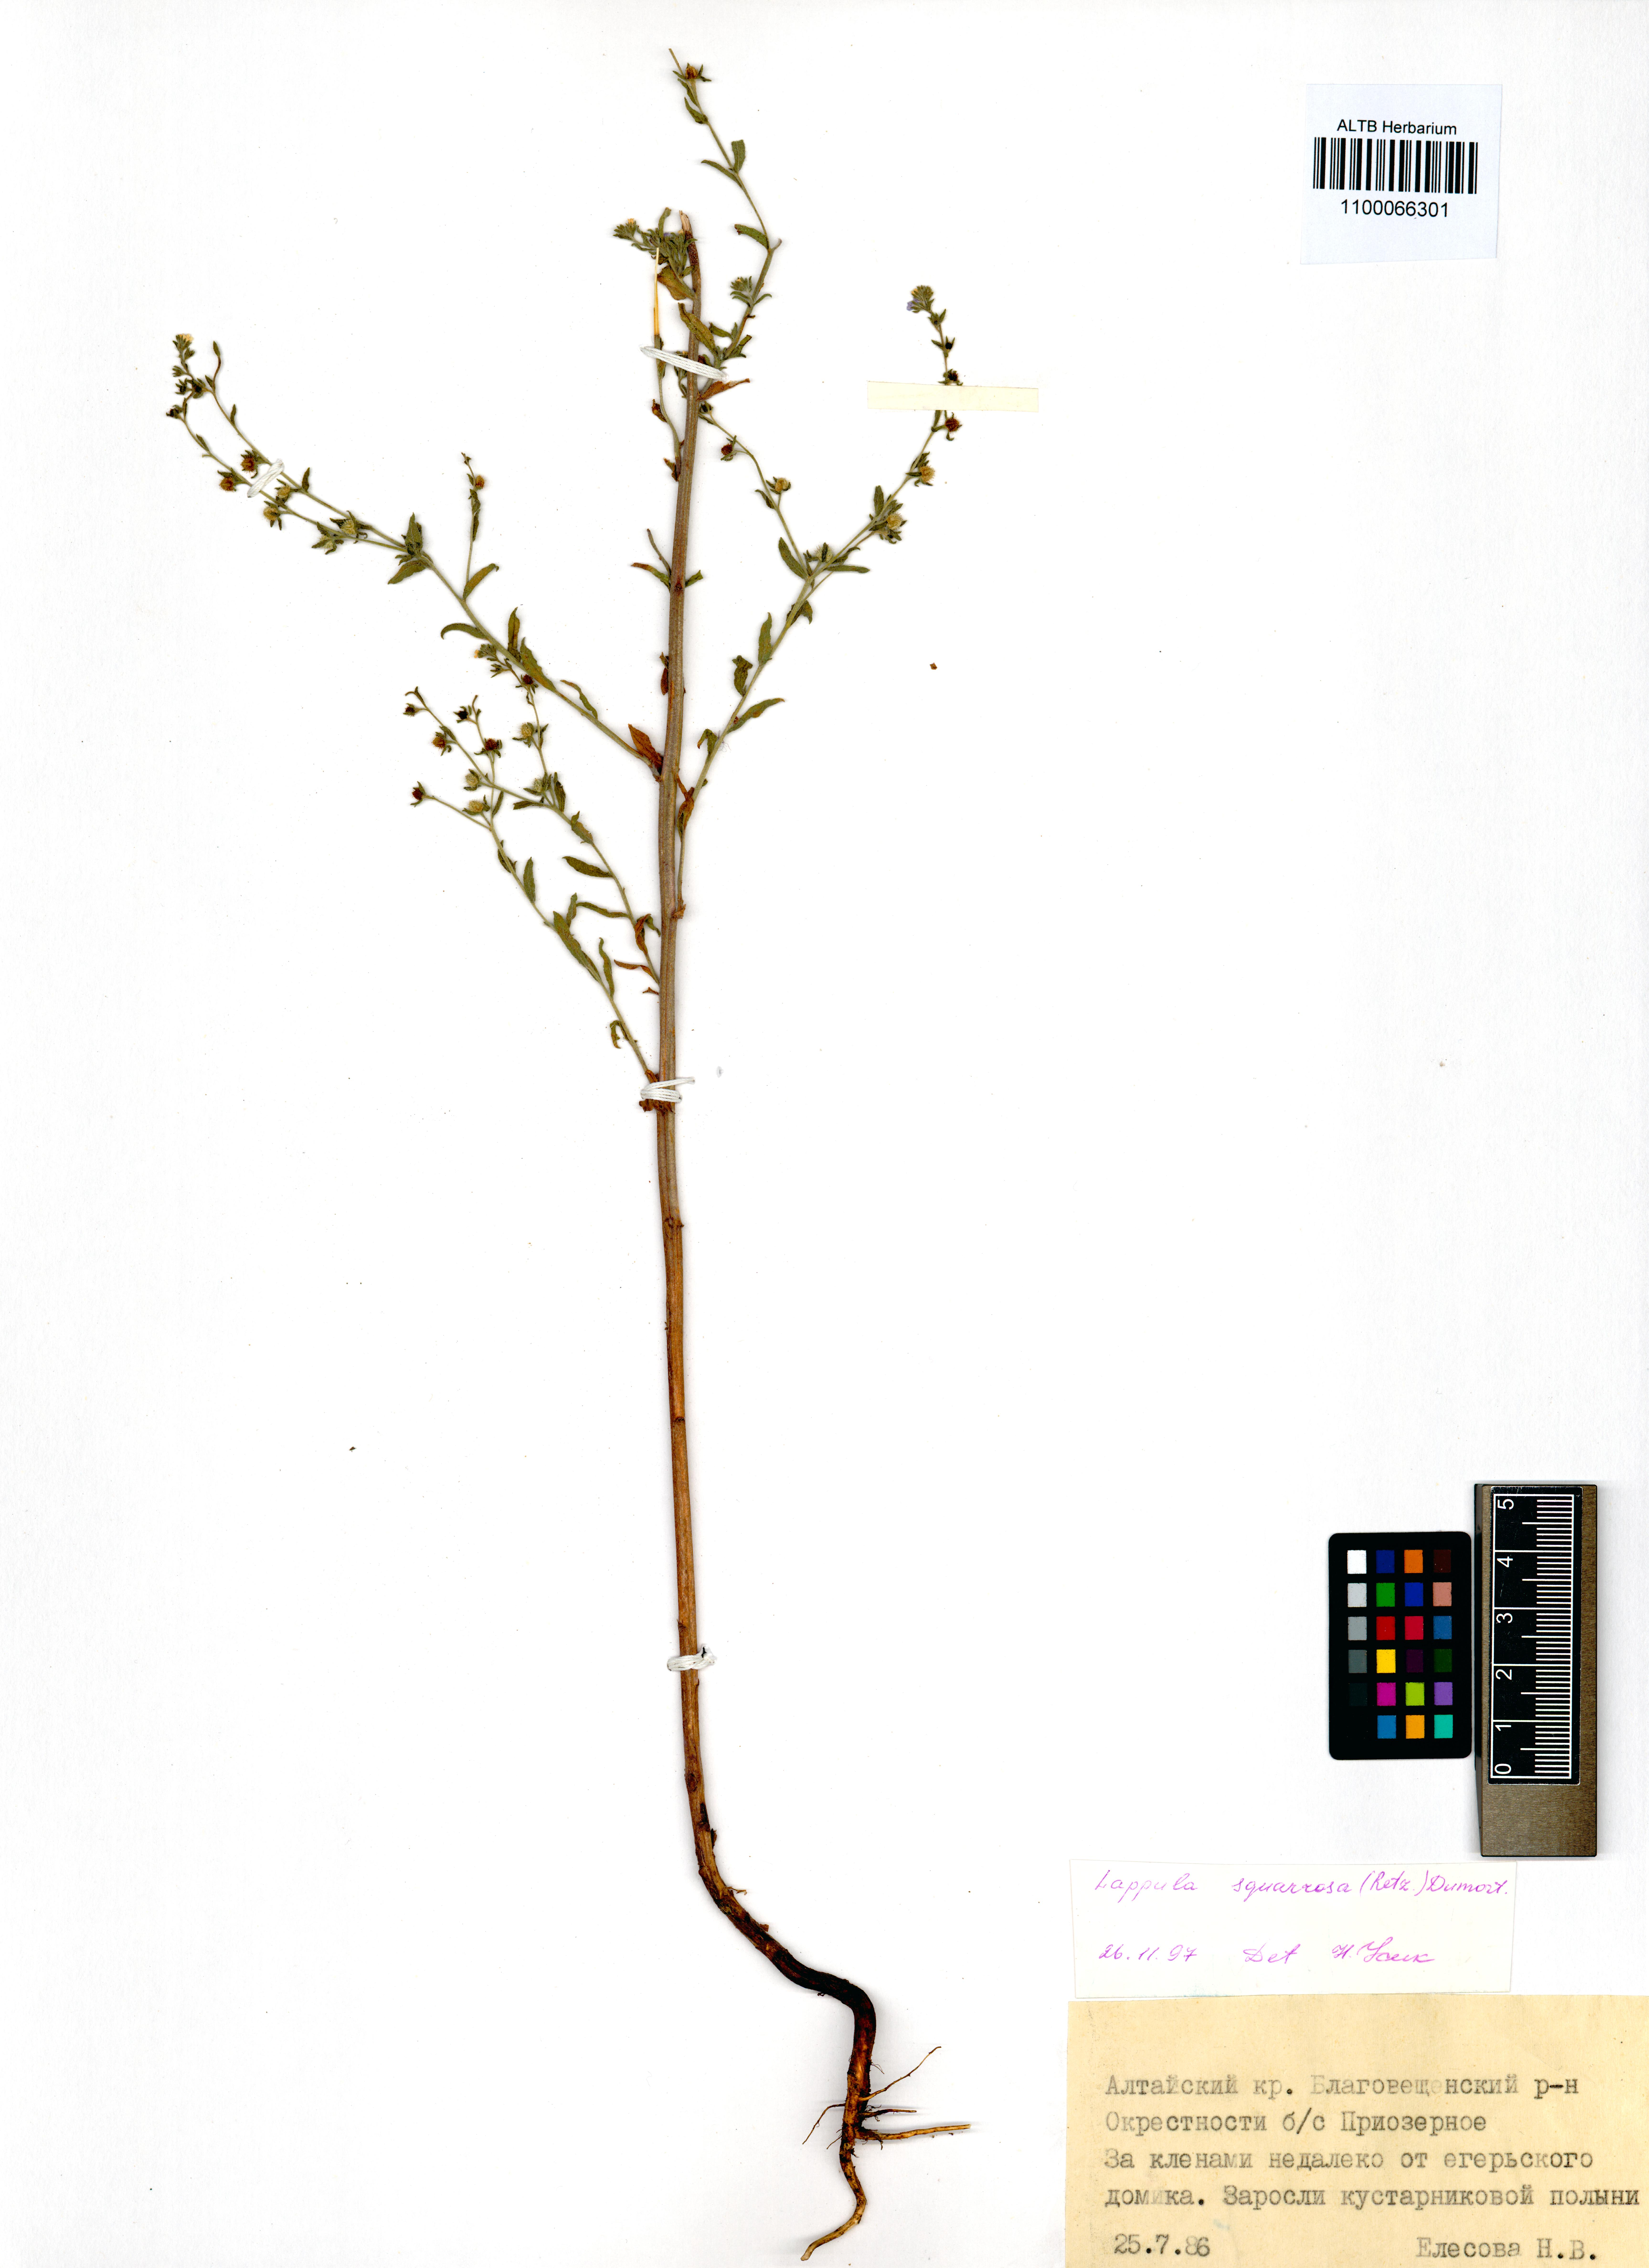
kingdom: Plantae
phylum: Tracheophyta
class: Magnoliopsida
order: Boraginales
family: Boraginaceae
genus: Lappula
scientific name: Lappula squarrosa
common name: European stickseed
